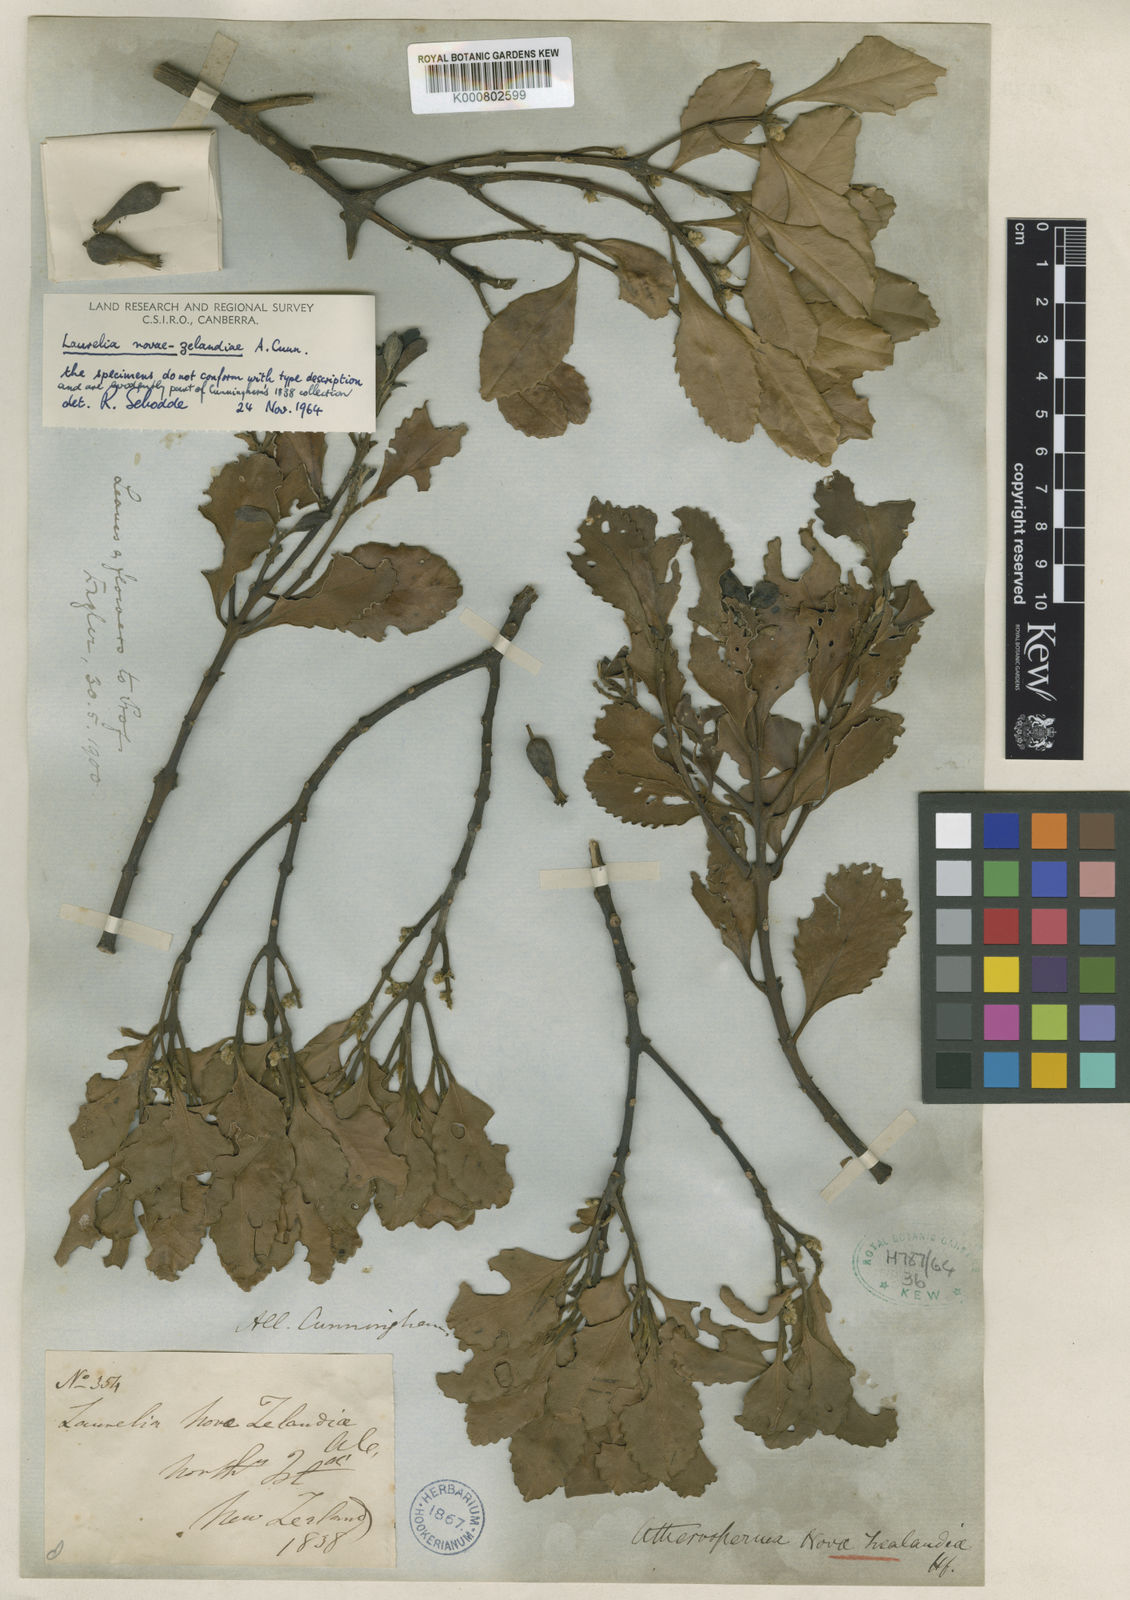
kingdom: Plantae
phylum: Tracheophyta
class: Magnoliopsida
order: Laurales
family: Atherospermataceae
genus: Laurelia
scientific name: Laurelia novae-zelandiae
